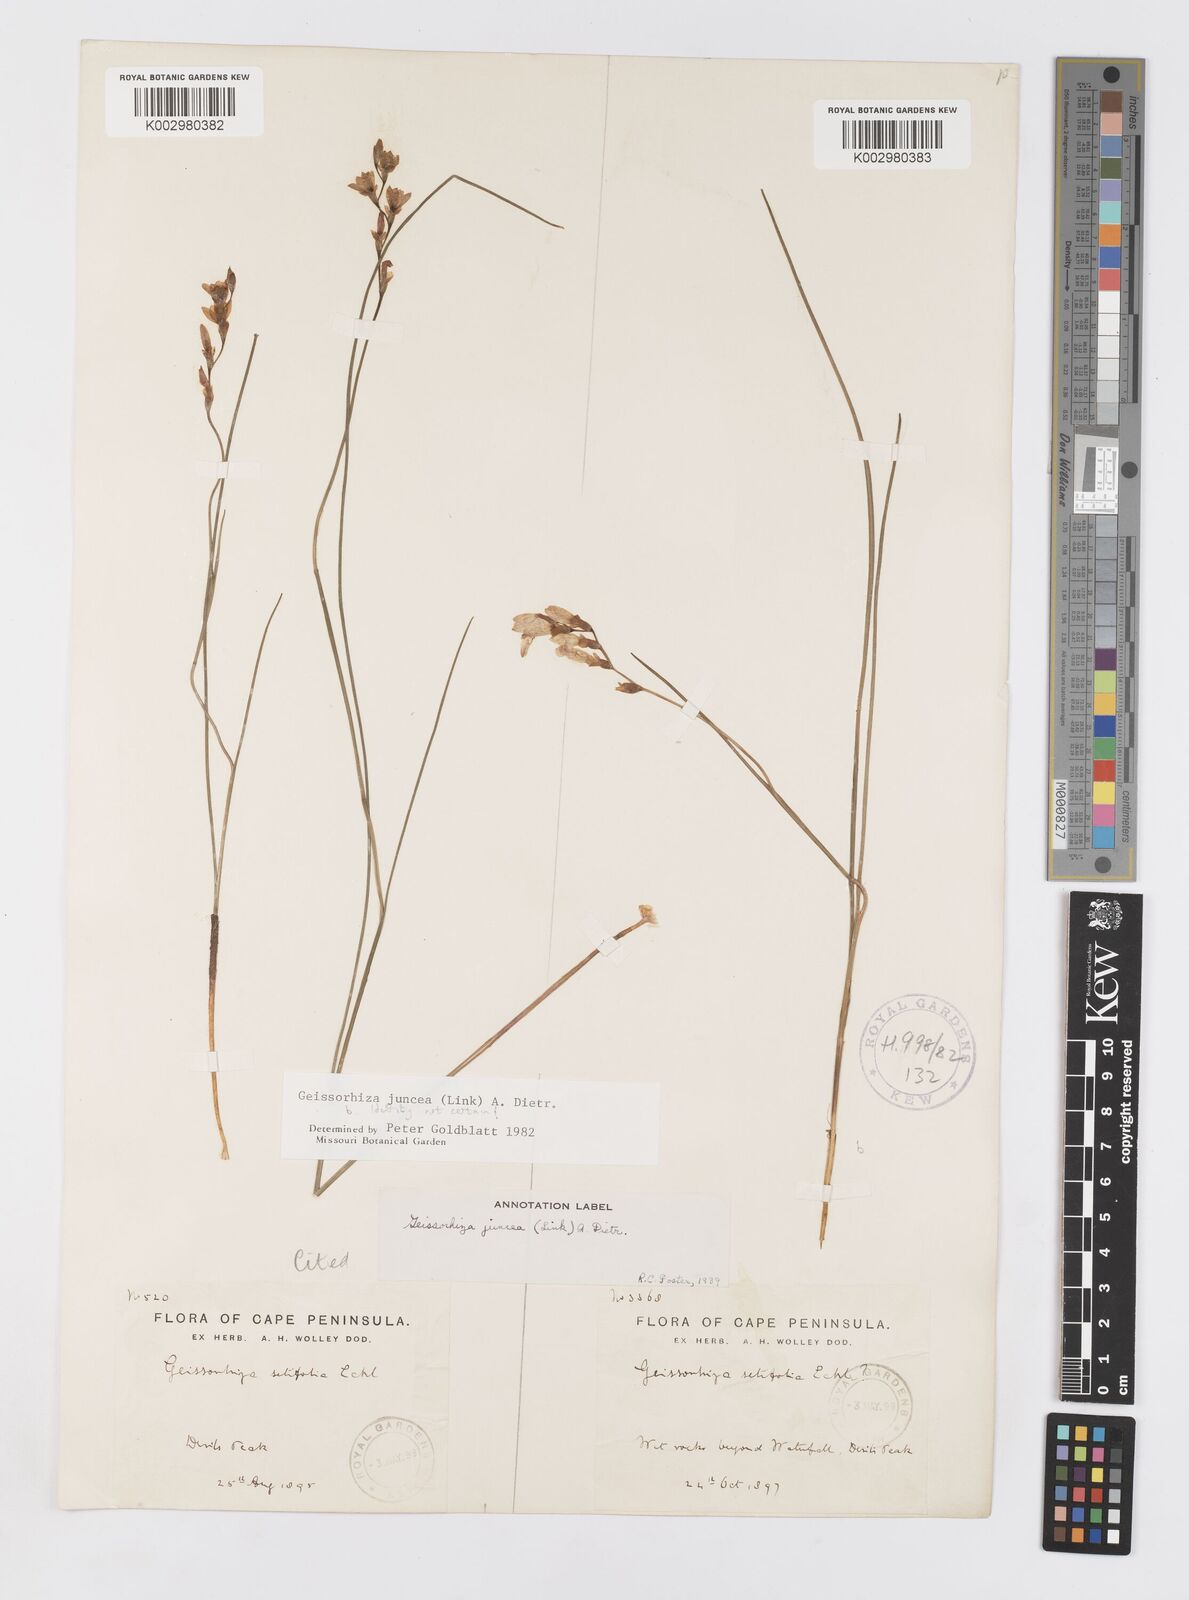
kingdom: Plantae
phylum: Tracheophyta
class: Liliopsida
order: Asparagales
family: Iridaceae
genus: Geissorhiza
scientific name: Geissorhiza juncea
